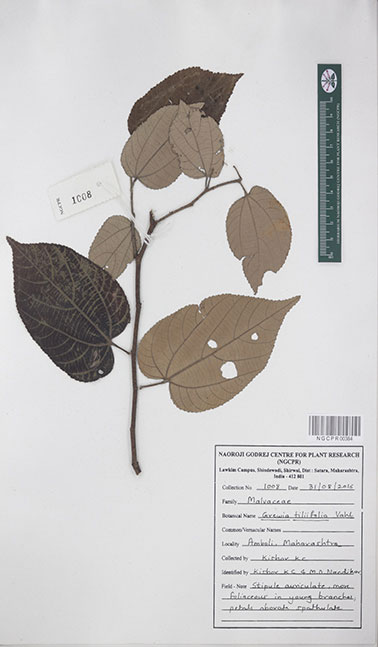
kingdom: Plantae
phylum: Tracheophyta
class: Magnoliopsida
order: Malvales
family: Malvaceae
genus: Grewia
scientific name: Grewia tiliifolia
